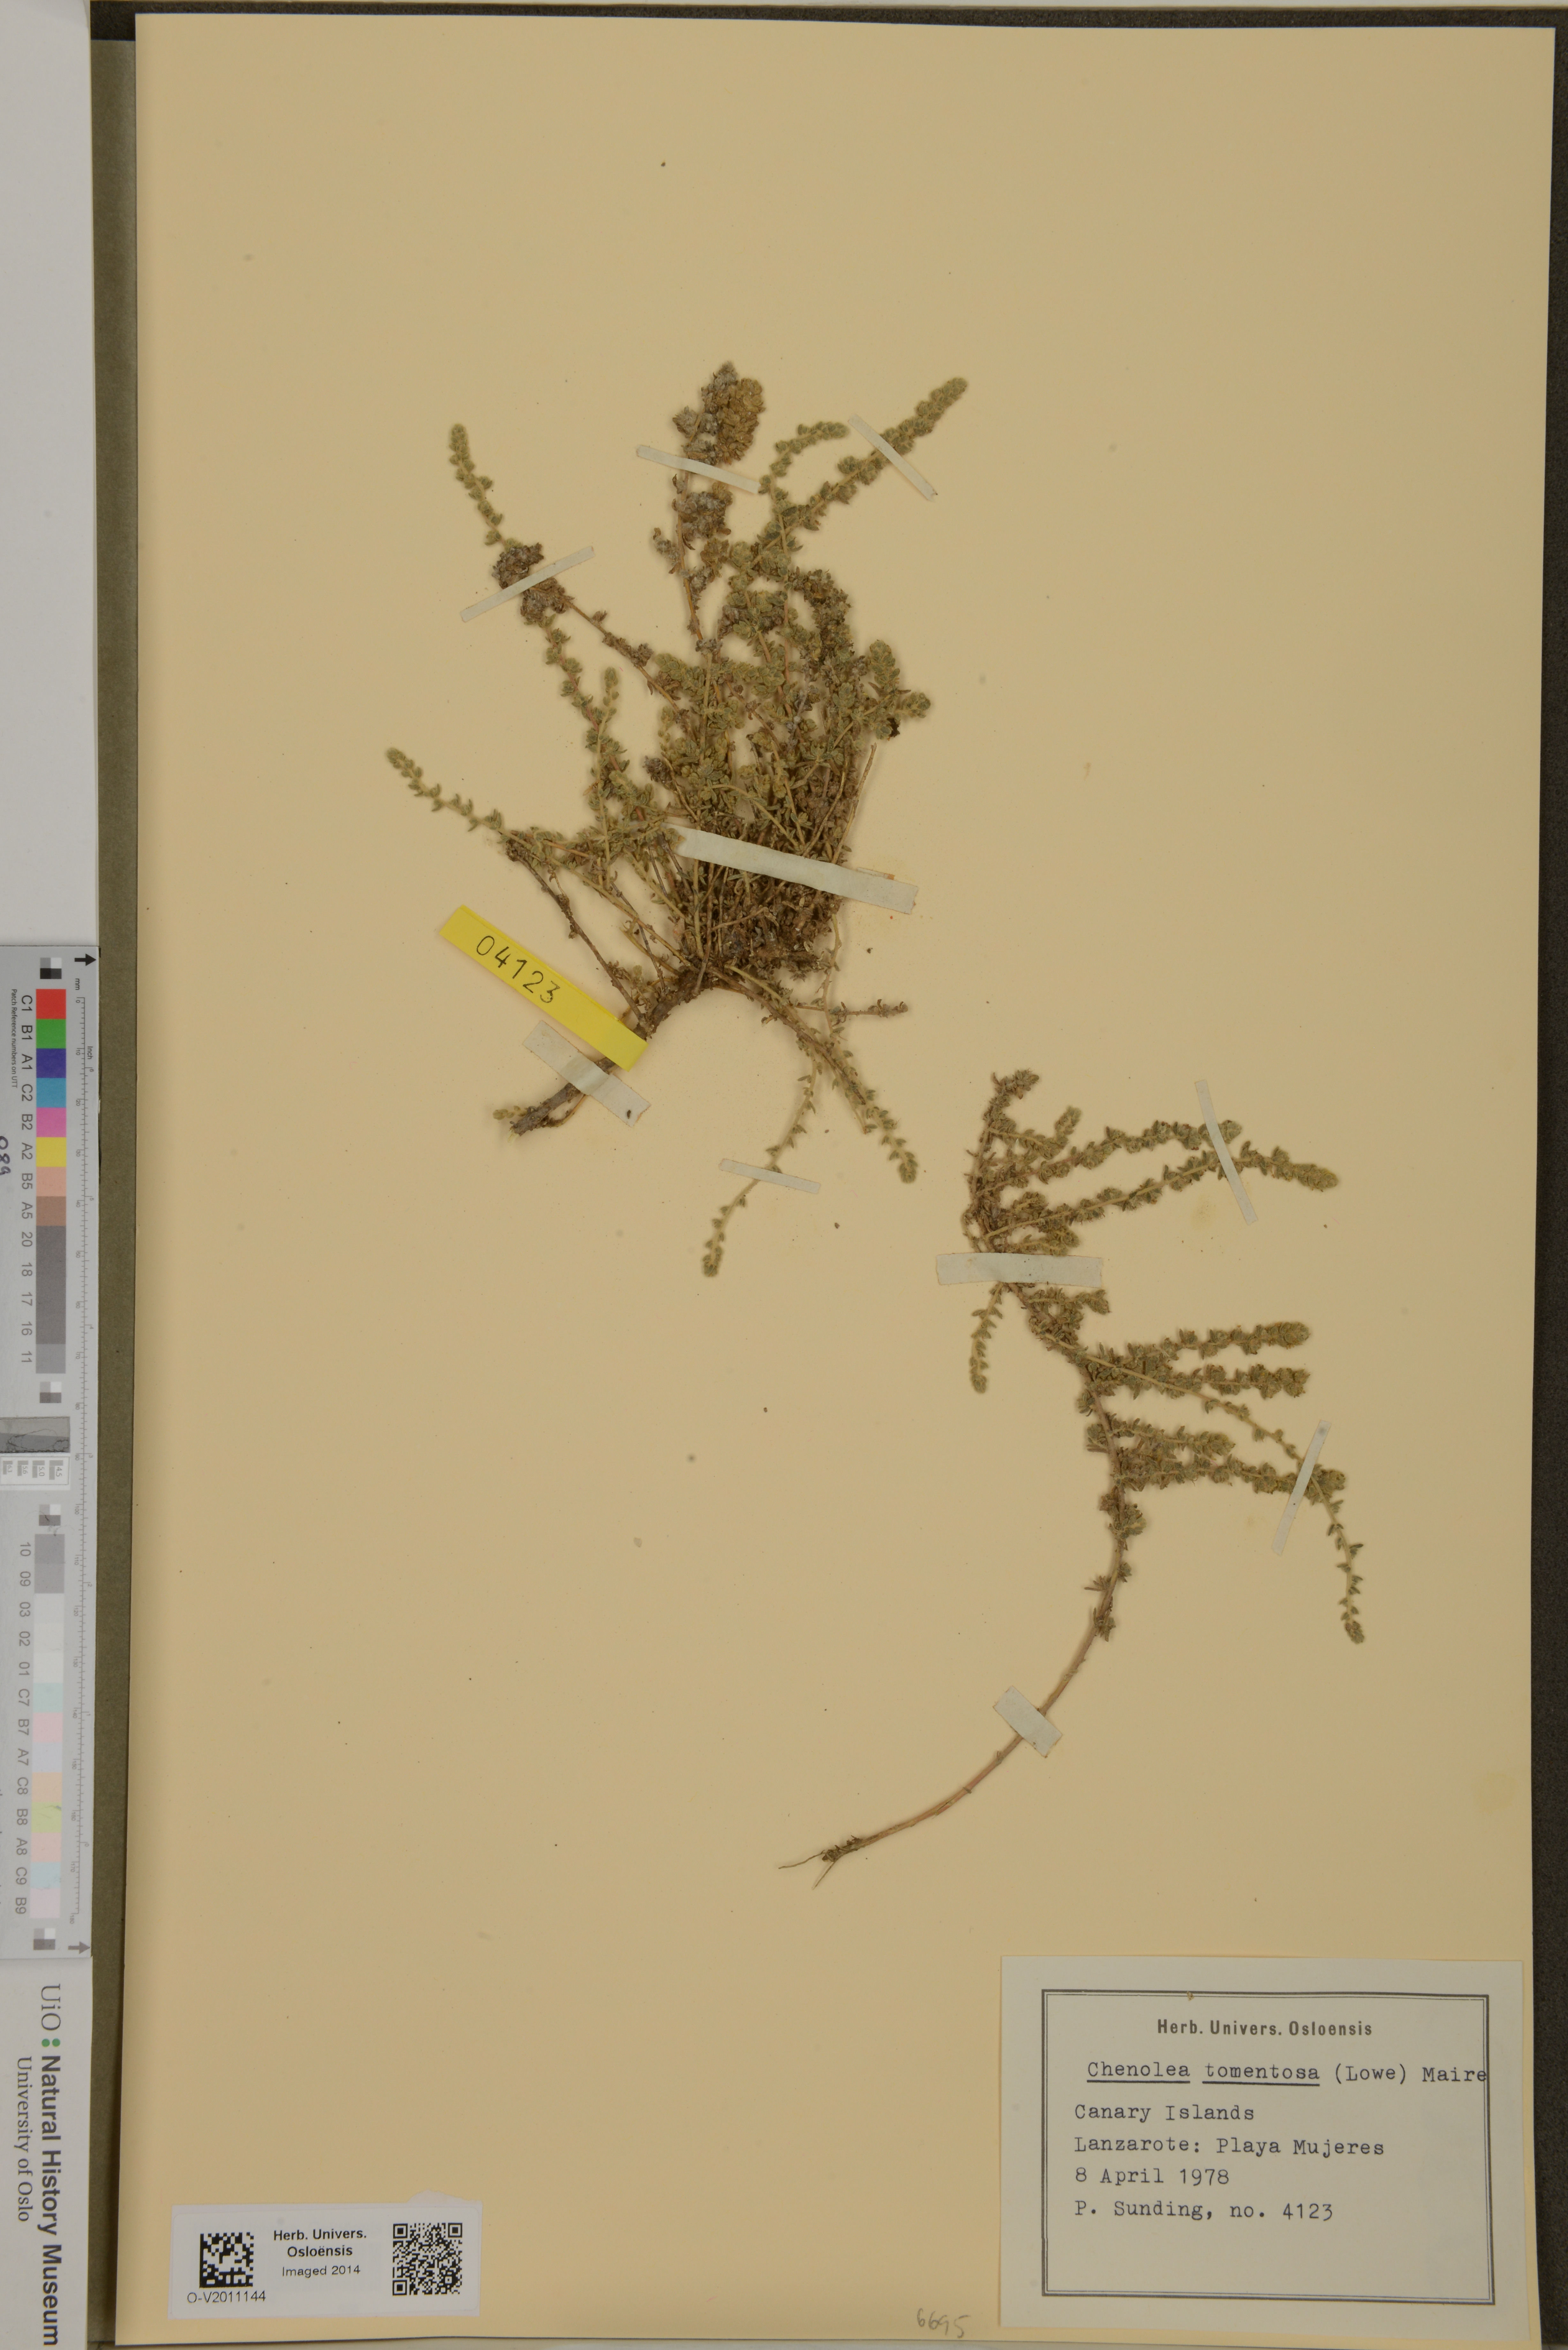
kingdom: Plantae
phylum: Tracheophyta
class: Magnoliopsida
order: Caryophyllales
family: Amaranthaceae
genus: Bassia
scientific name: Bassia tomentosa
